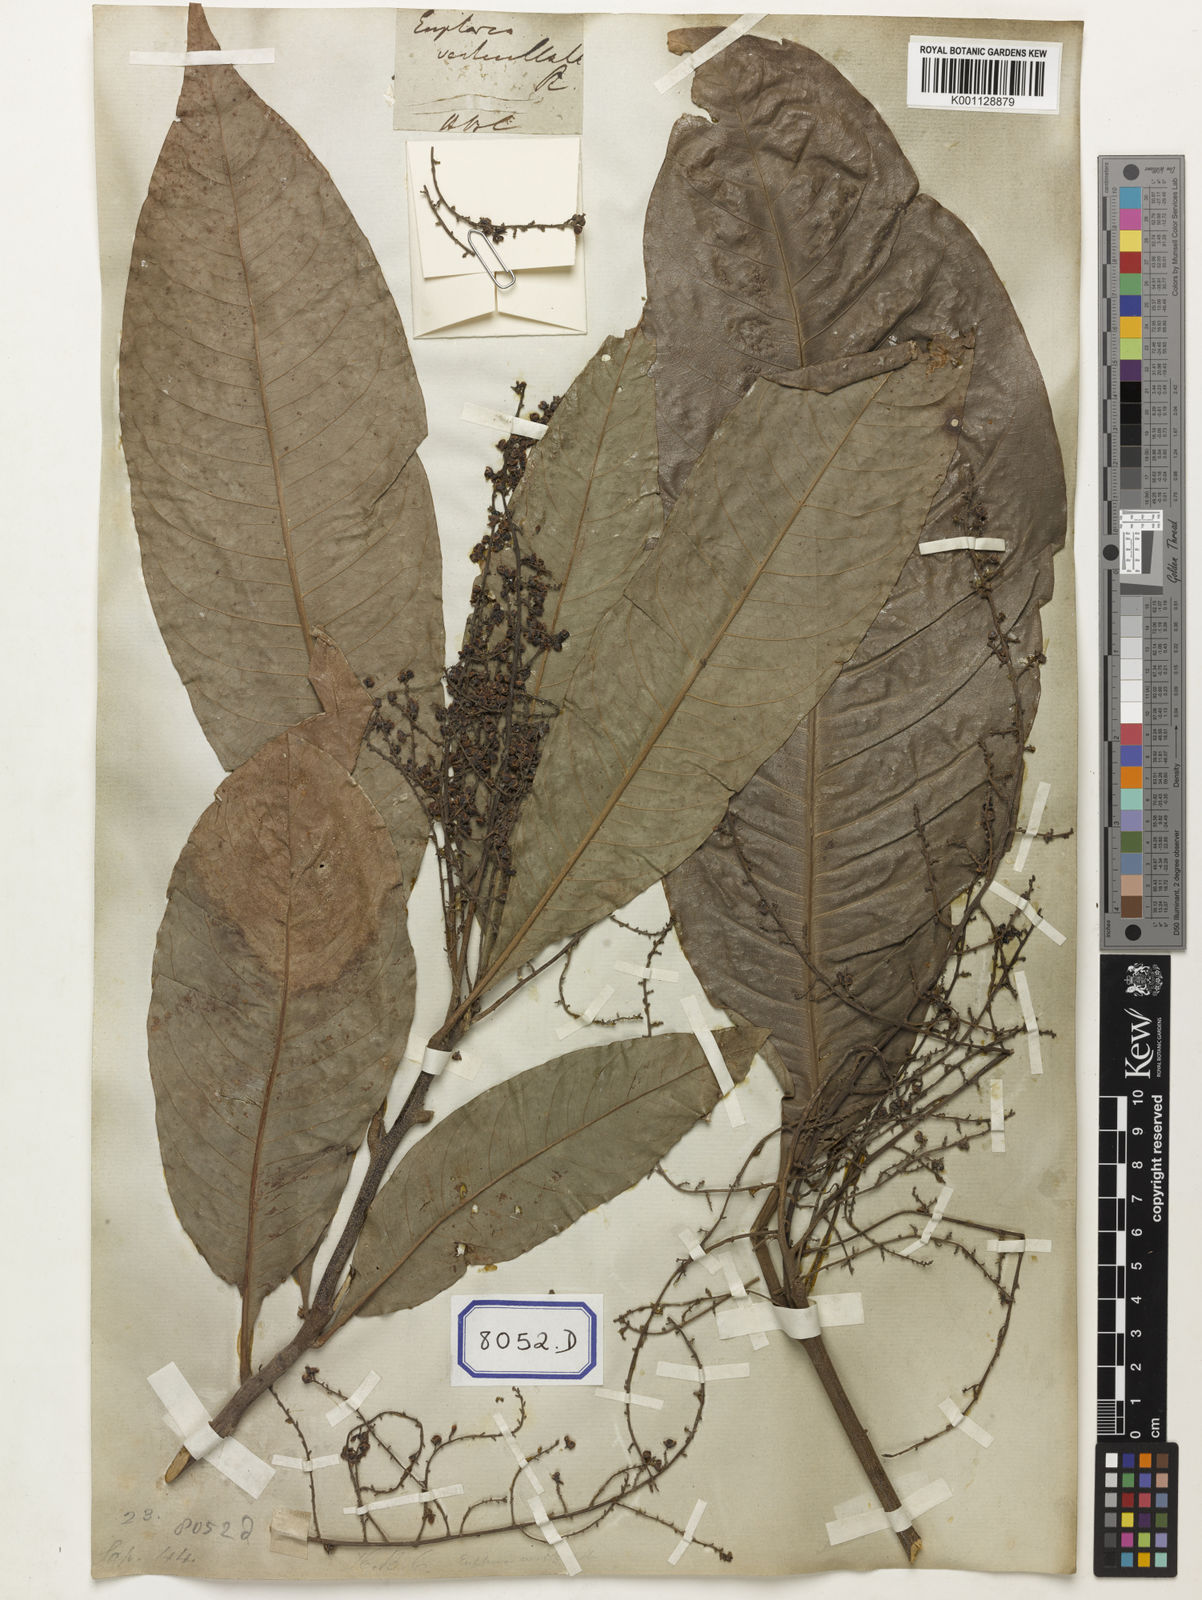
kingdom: Plantae
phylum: Tracheophyta
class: Magnoliopsida
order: Sapindales
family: Sapindaceae
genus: Lepisanthes
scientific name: Lepisanthes senegalensis
